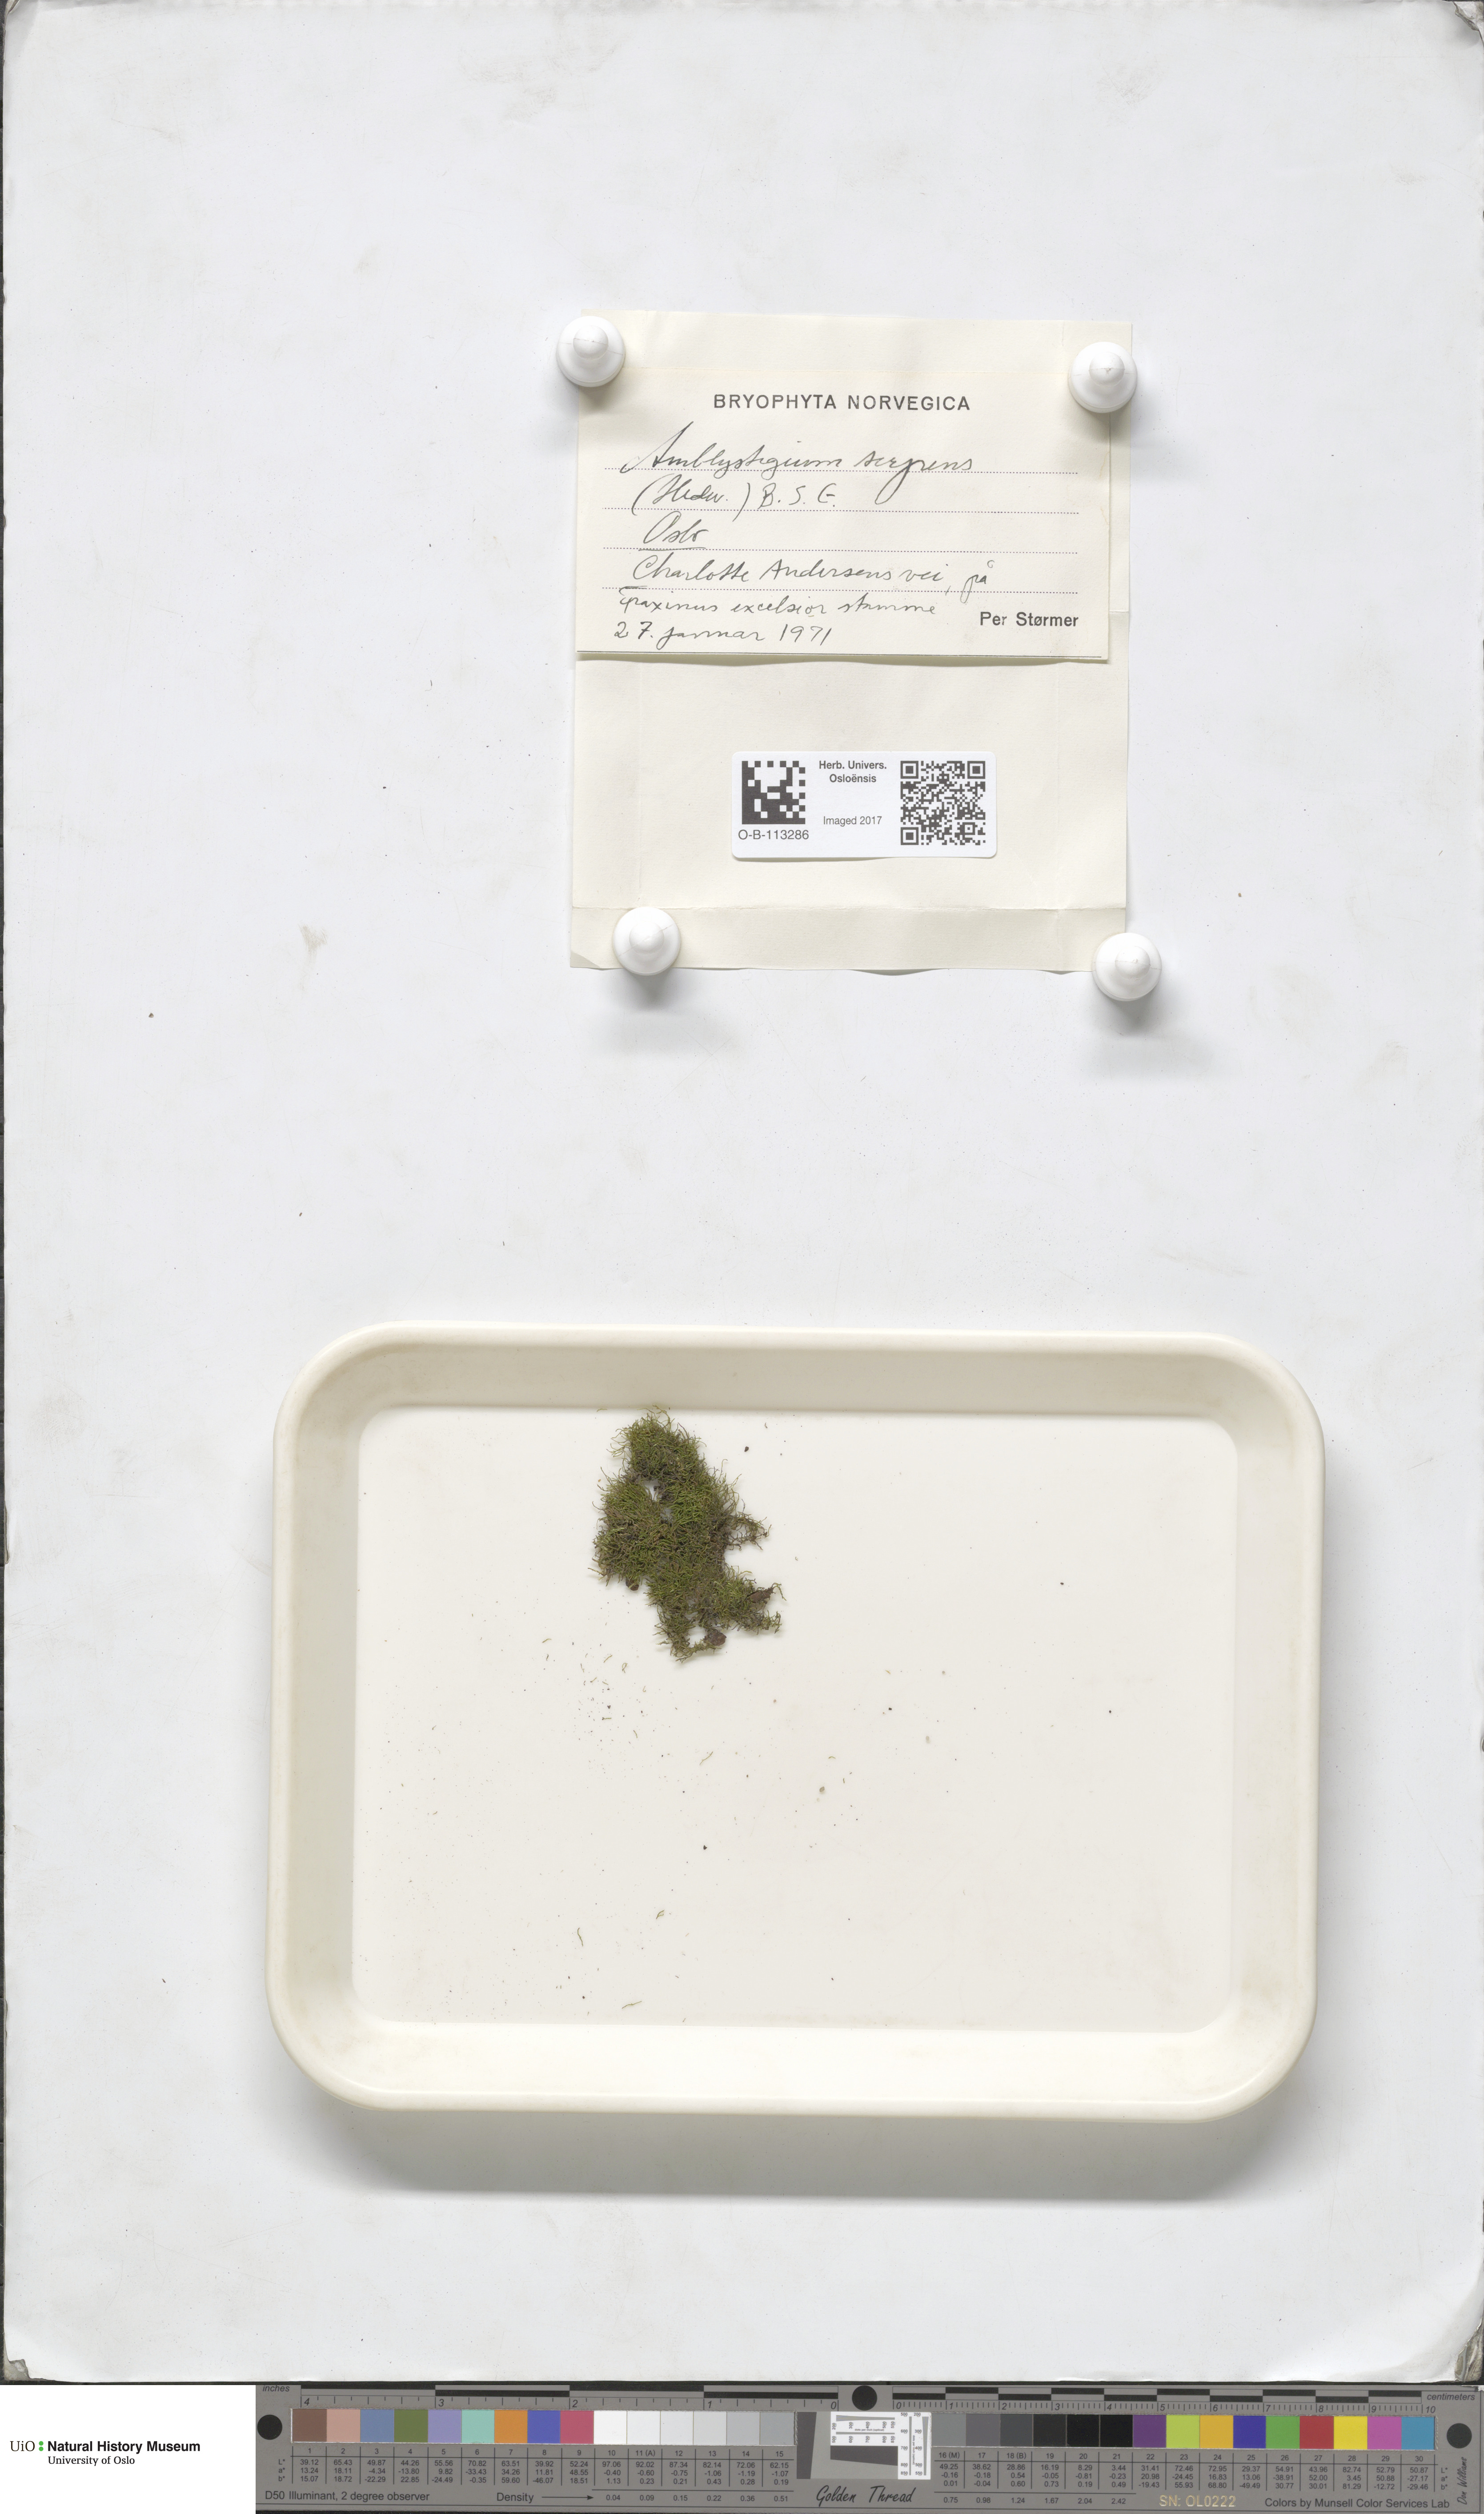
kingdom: Plantae
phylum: Bryophyta
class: Bryopsida
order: Hypnales
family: Amblystegiaceae
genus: Amblystegium
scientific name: Amblystegium serpens
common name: Jurkatzka's feather moss
